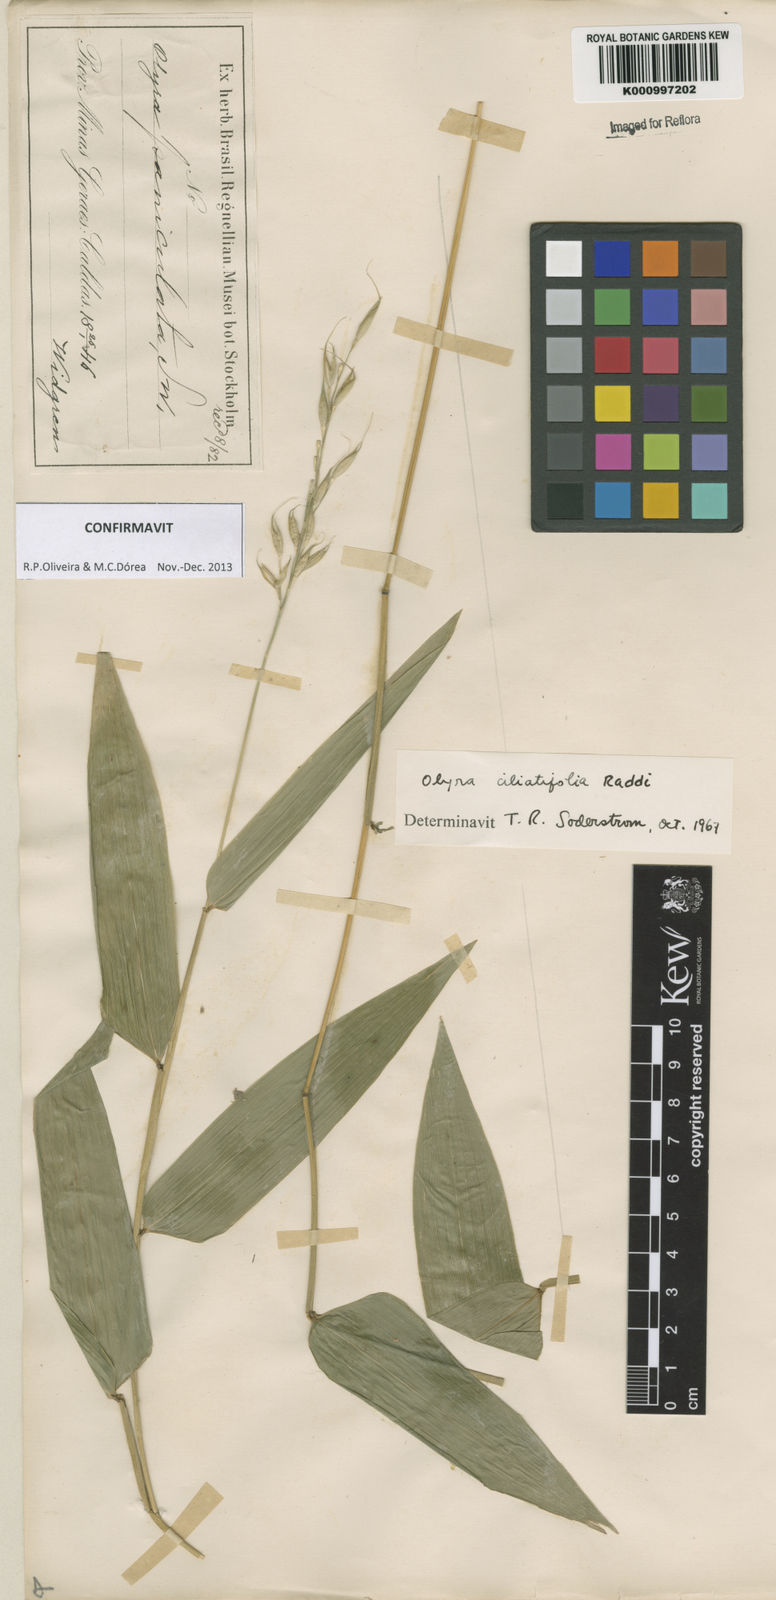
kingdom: Plantae
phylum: Tracheophyta
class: Liliopsida
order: Poales
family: Poaceae
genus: Olyra
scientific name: Olyra ciliatifolia
